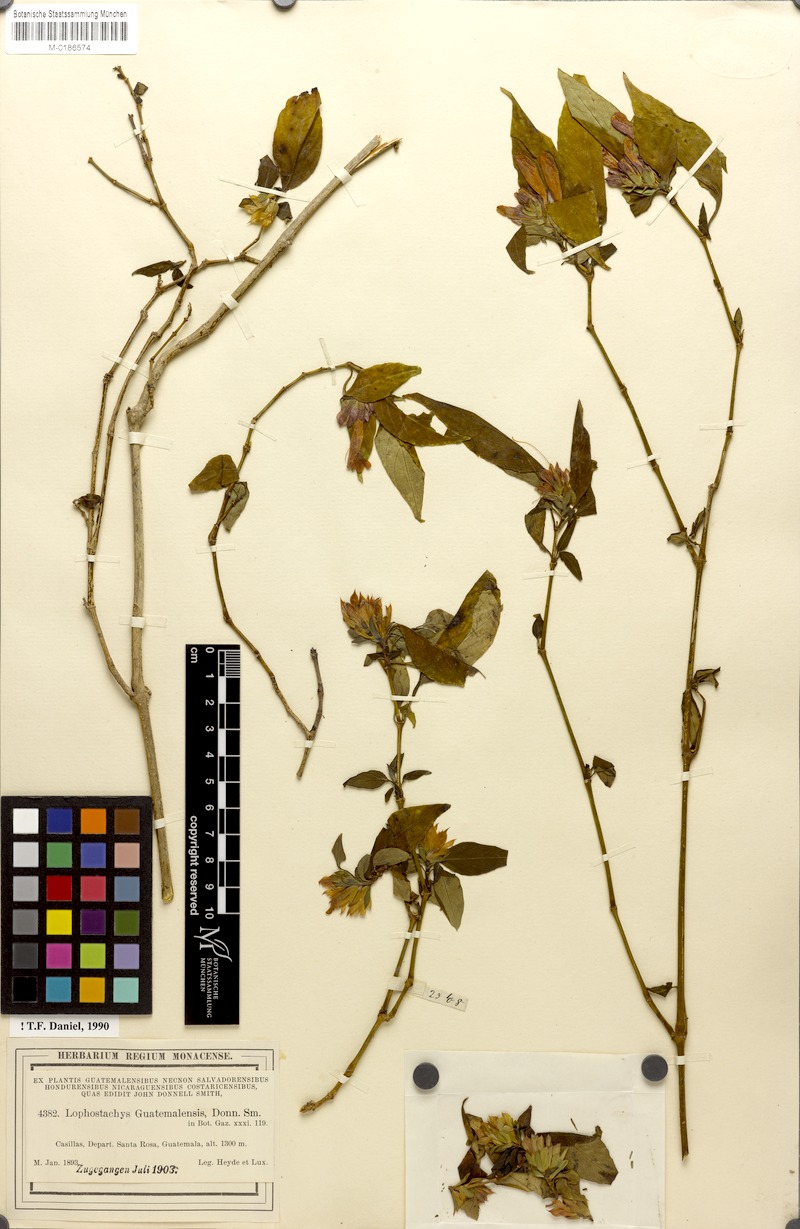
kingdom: Plantae
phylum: Tracheophyta
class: Magnoliopsida
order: Lamiales
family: Acanthaceae
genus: Lepidagathis
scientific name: Lepidagathis guatemalensis
